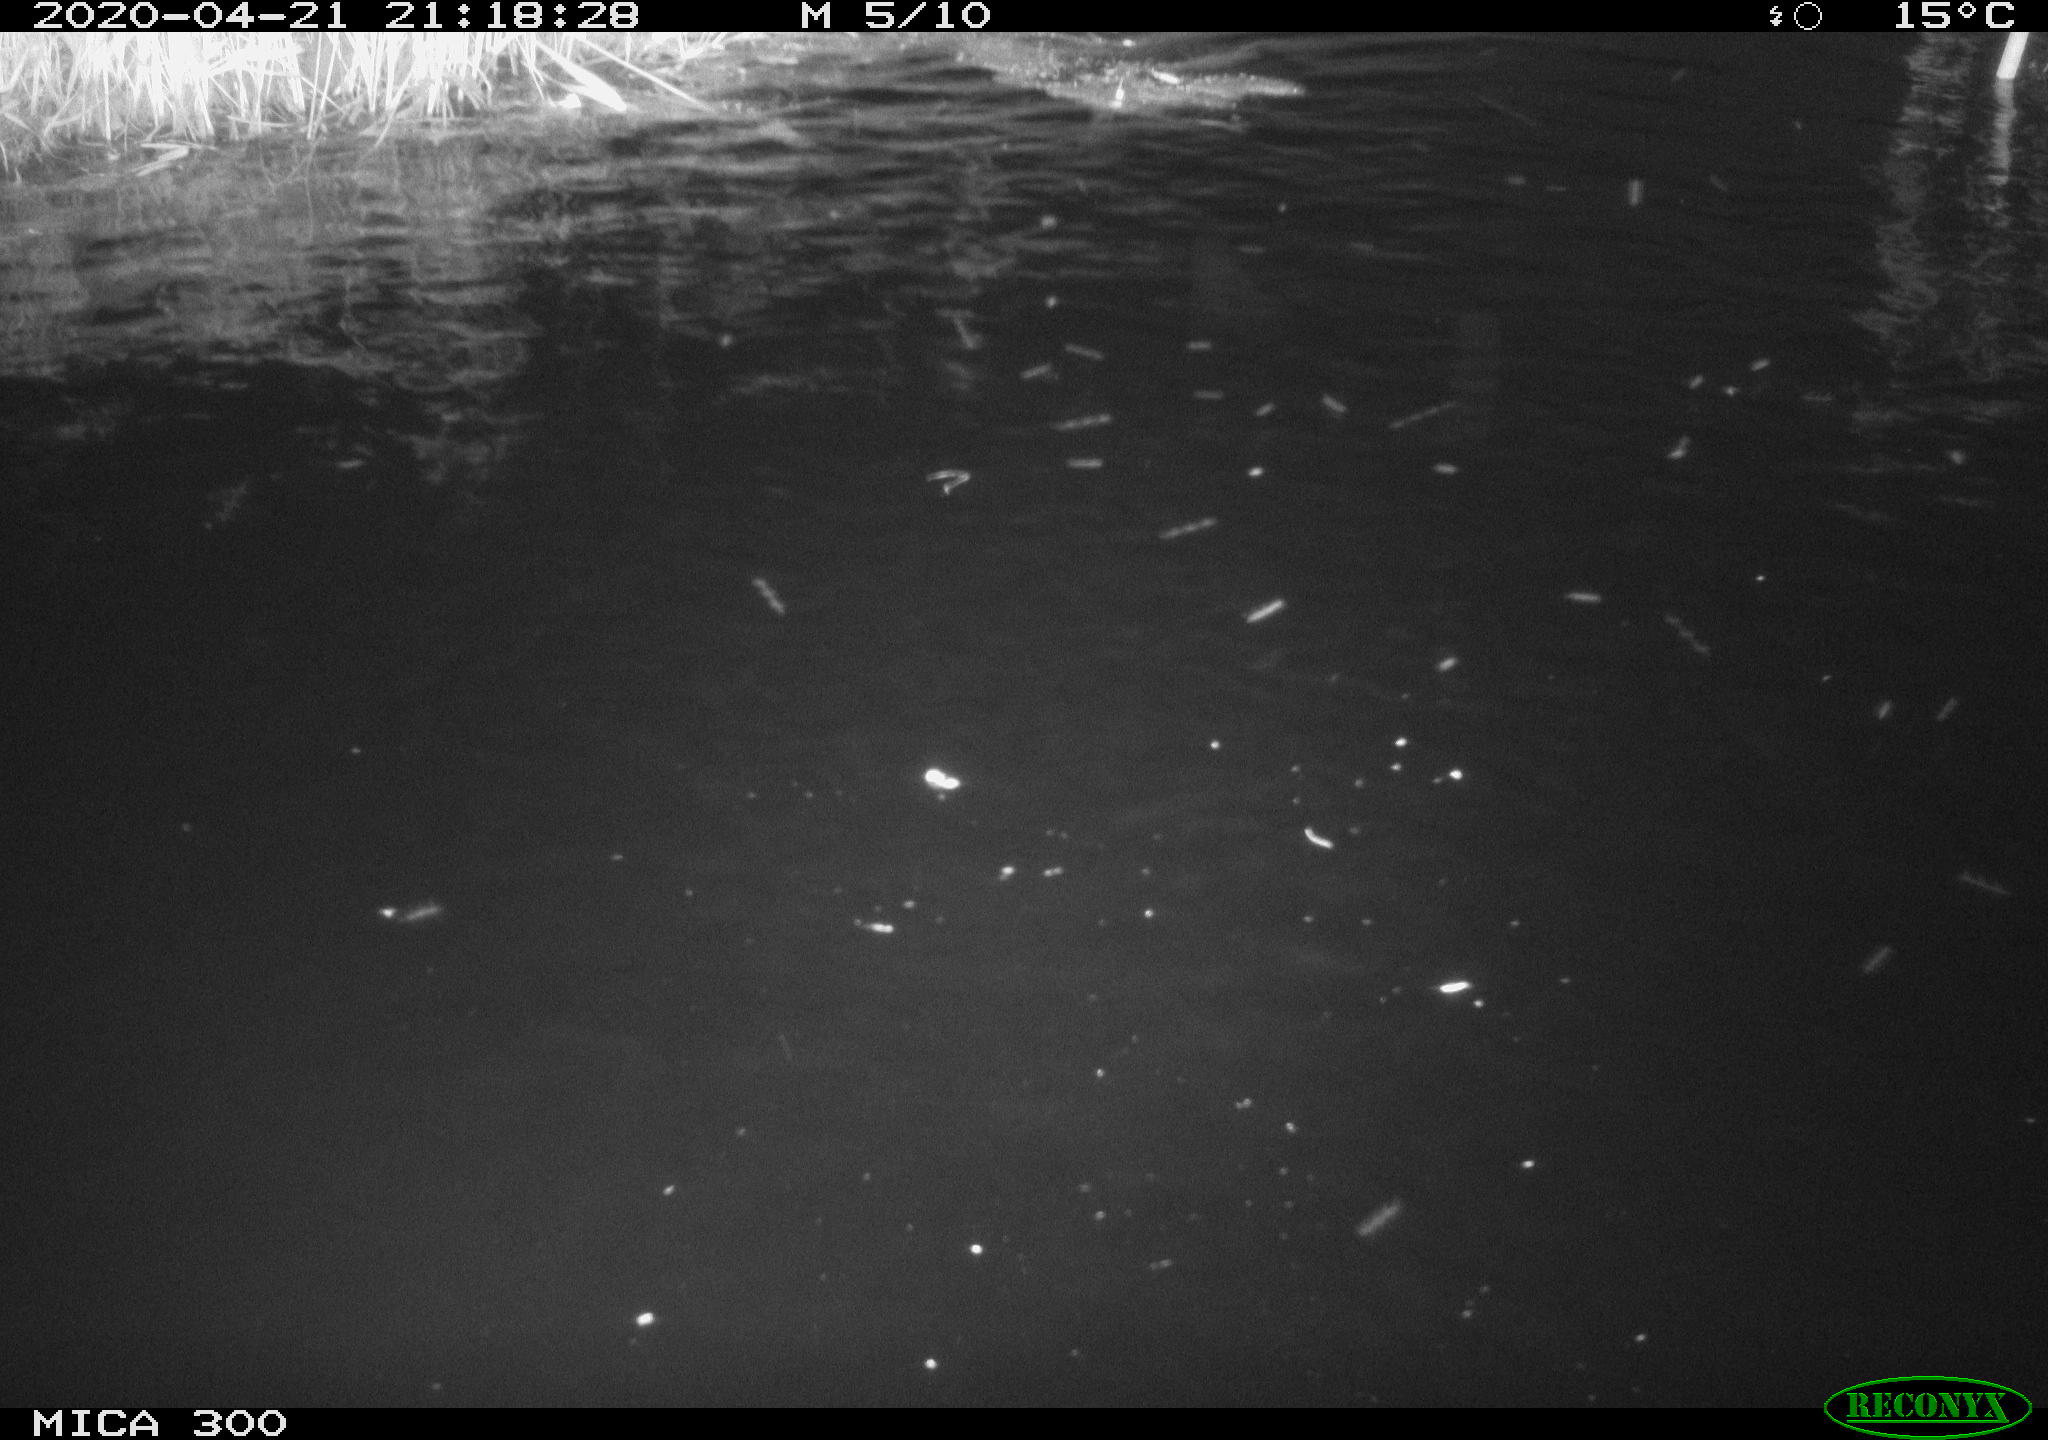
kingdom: Animalia
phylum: Chordata
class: Aves
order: Anseriformes
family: Anatidae
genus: Anas
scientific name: Anas platyrhynchos
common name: Mallard
